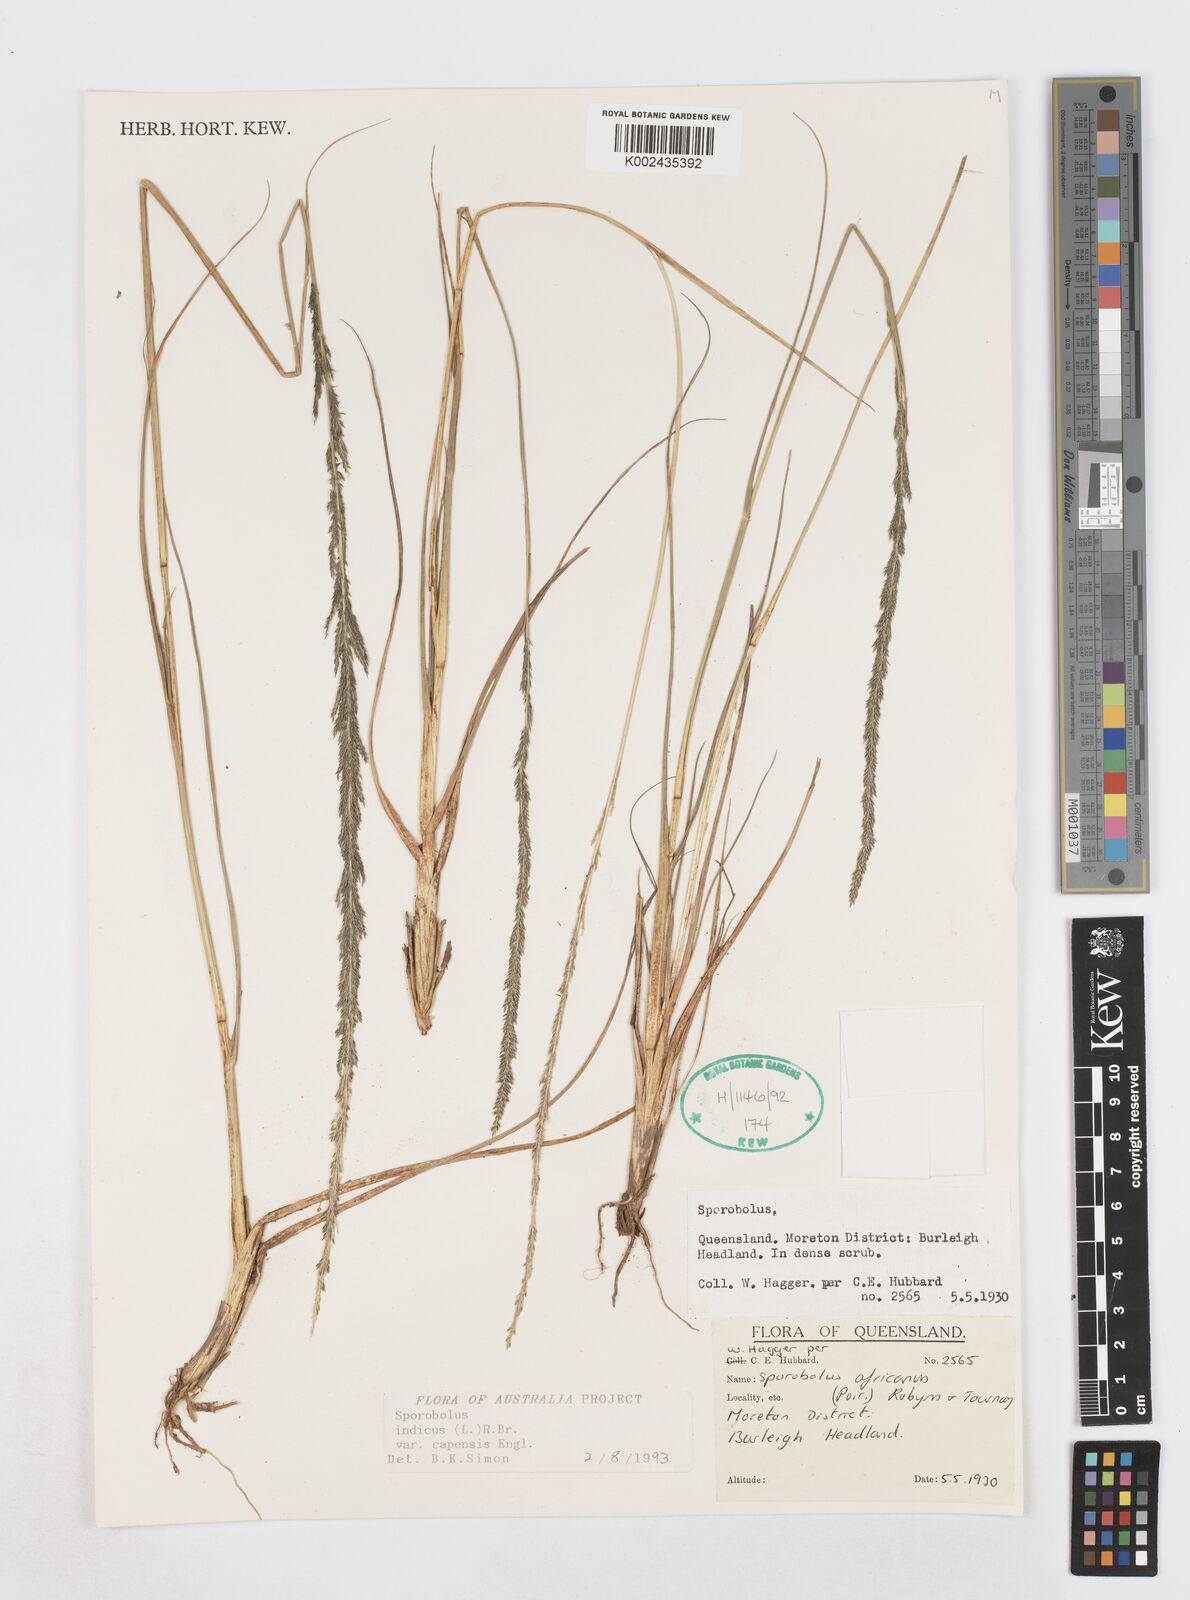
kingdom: Plantae
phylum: Tracheophyta
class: Liliopsida
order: Poales
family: Poaceae
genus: Sporobolus
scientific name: Sporobolus africanus
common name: African dropseed
